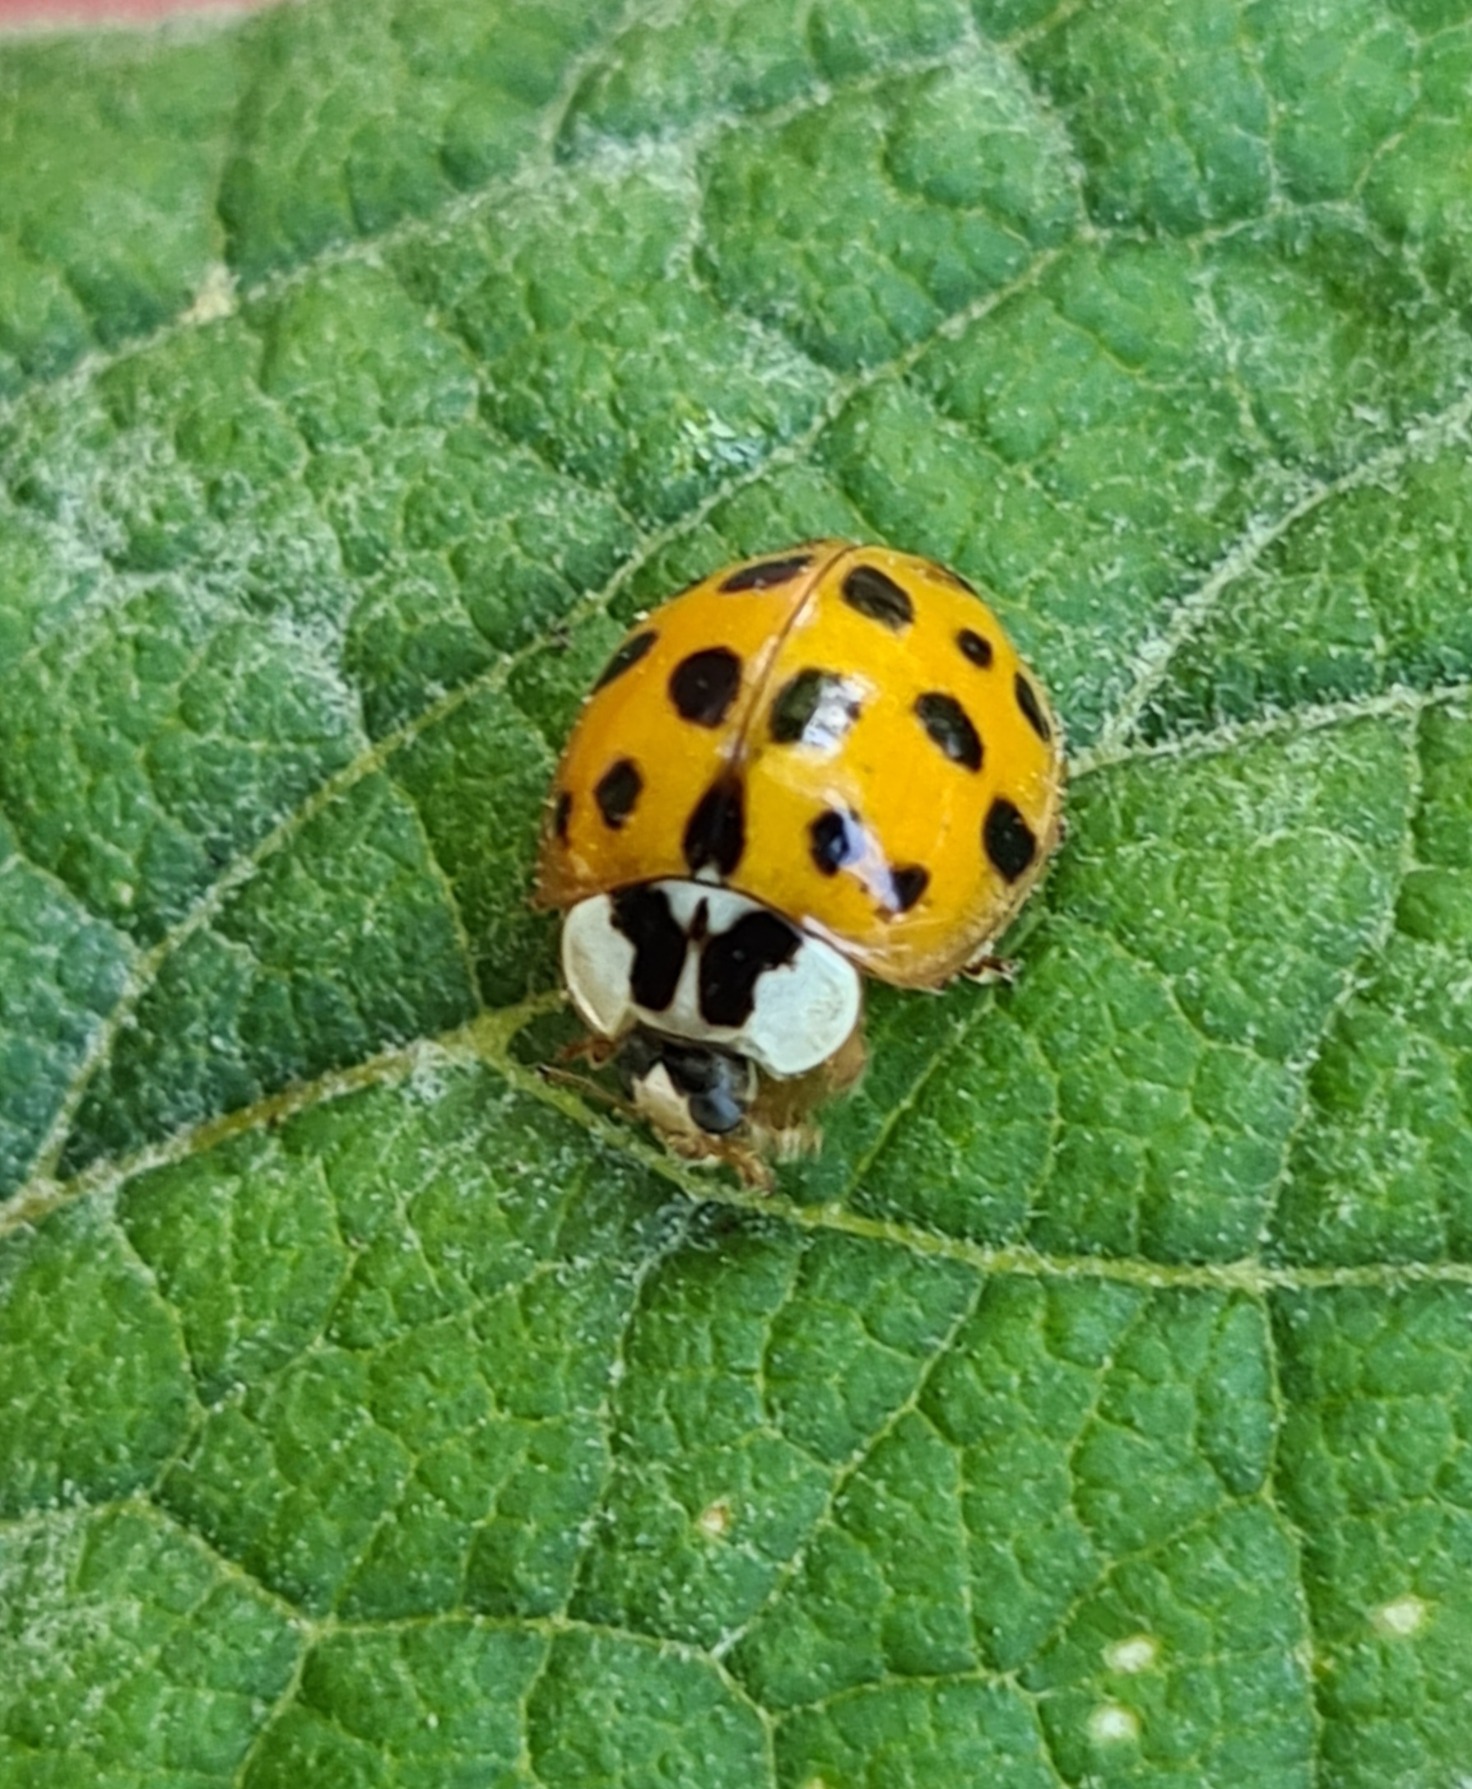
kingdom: Animalia
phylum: Arthropoda
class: Insecta
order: Coleoptera
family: Coccinellidae
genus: Harmonia
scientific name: Harmonia axyridis
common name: Harlekinmariehøne
